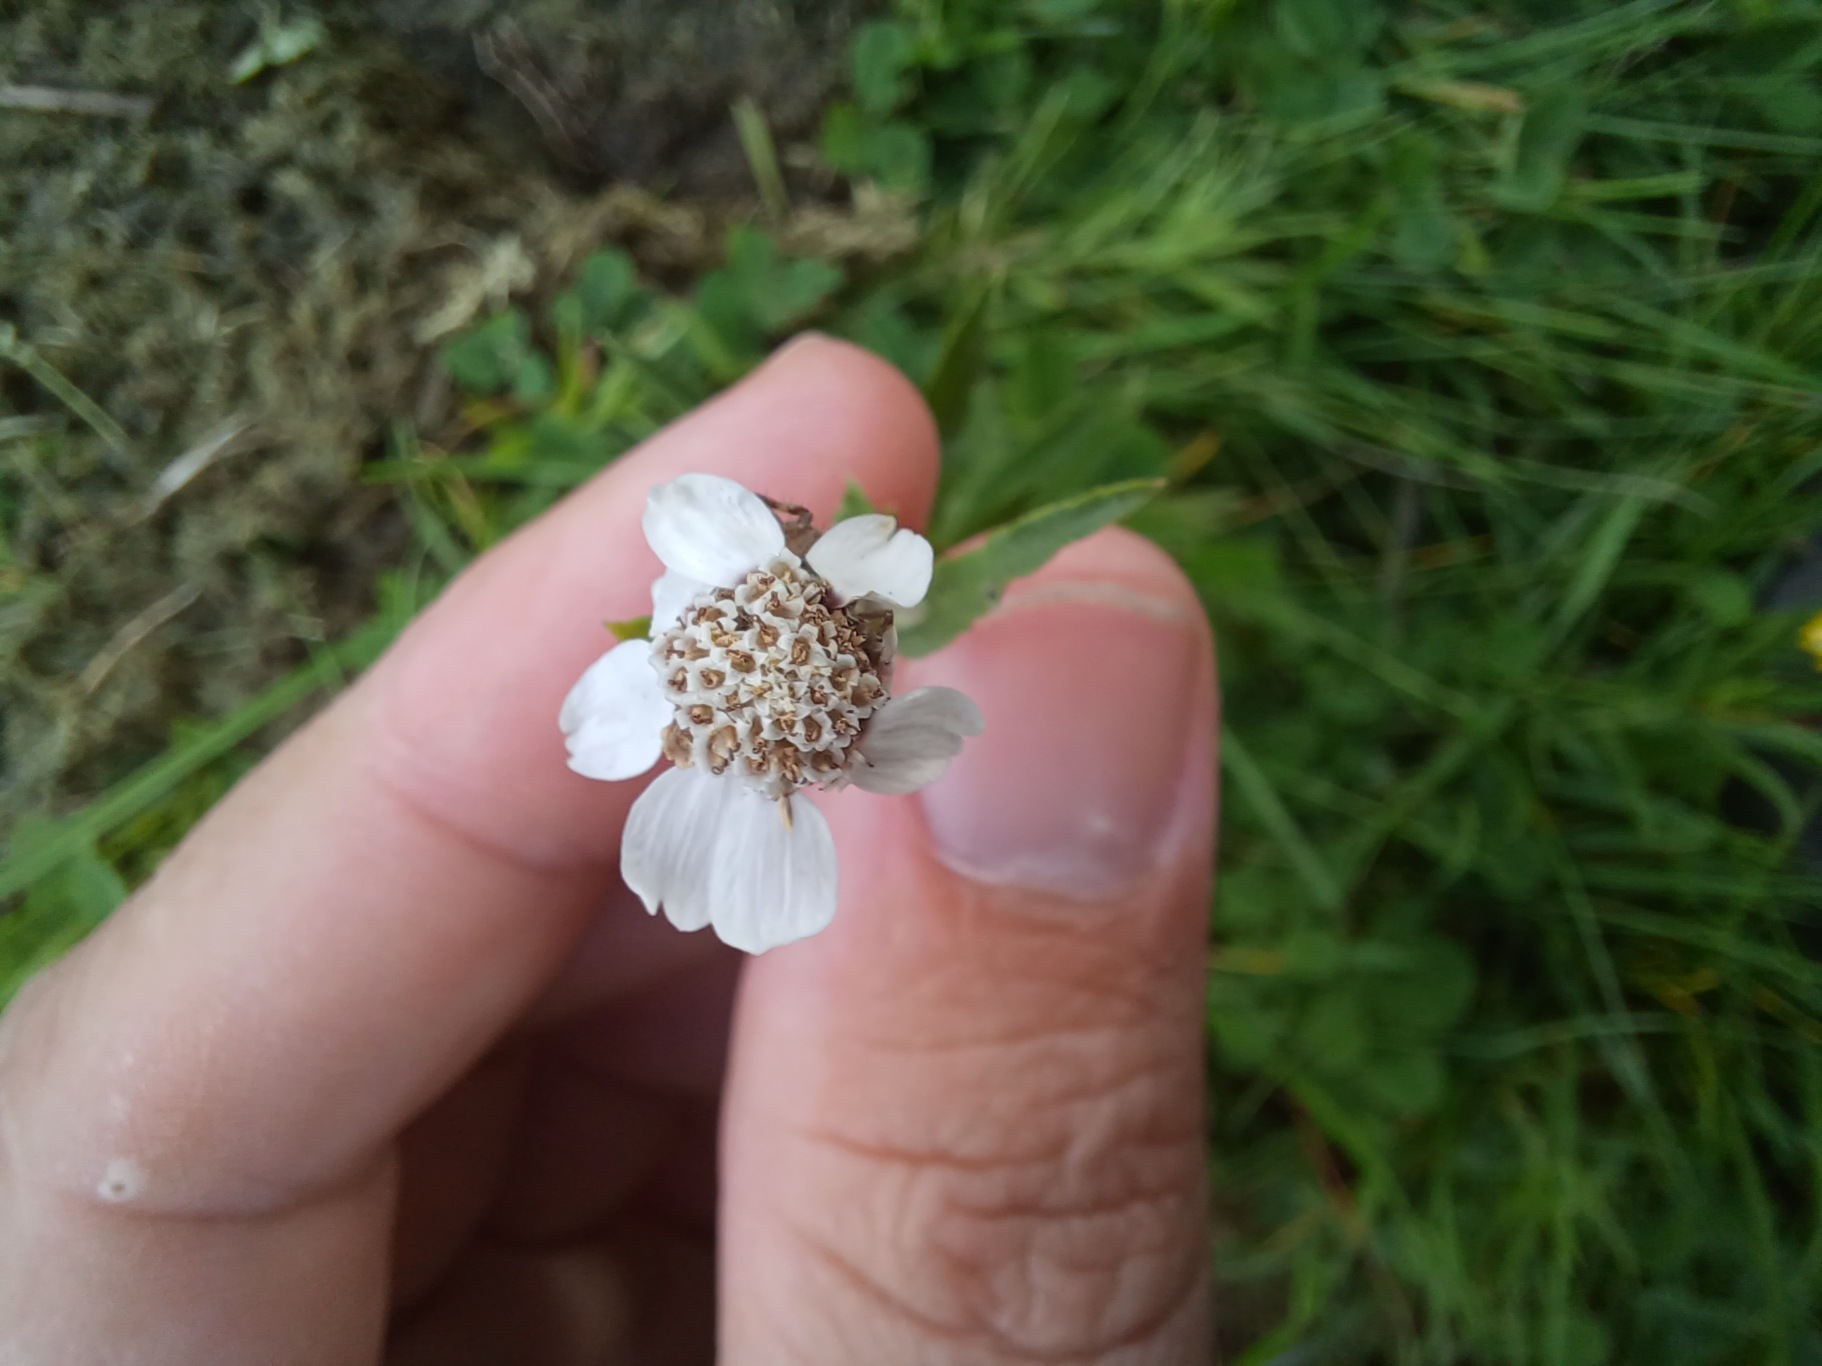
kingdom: Plantae
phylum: Tracheophyta
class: Magnoliopsida
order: Asterales
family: Asteraceae
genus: Achillea
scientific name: Achillea ptarmica
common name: Nyse-røllike
